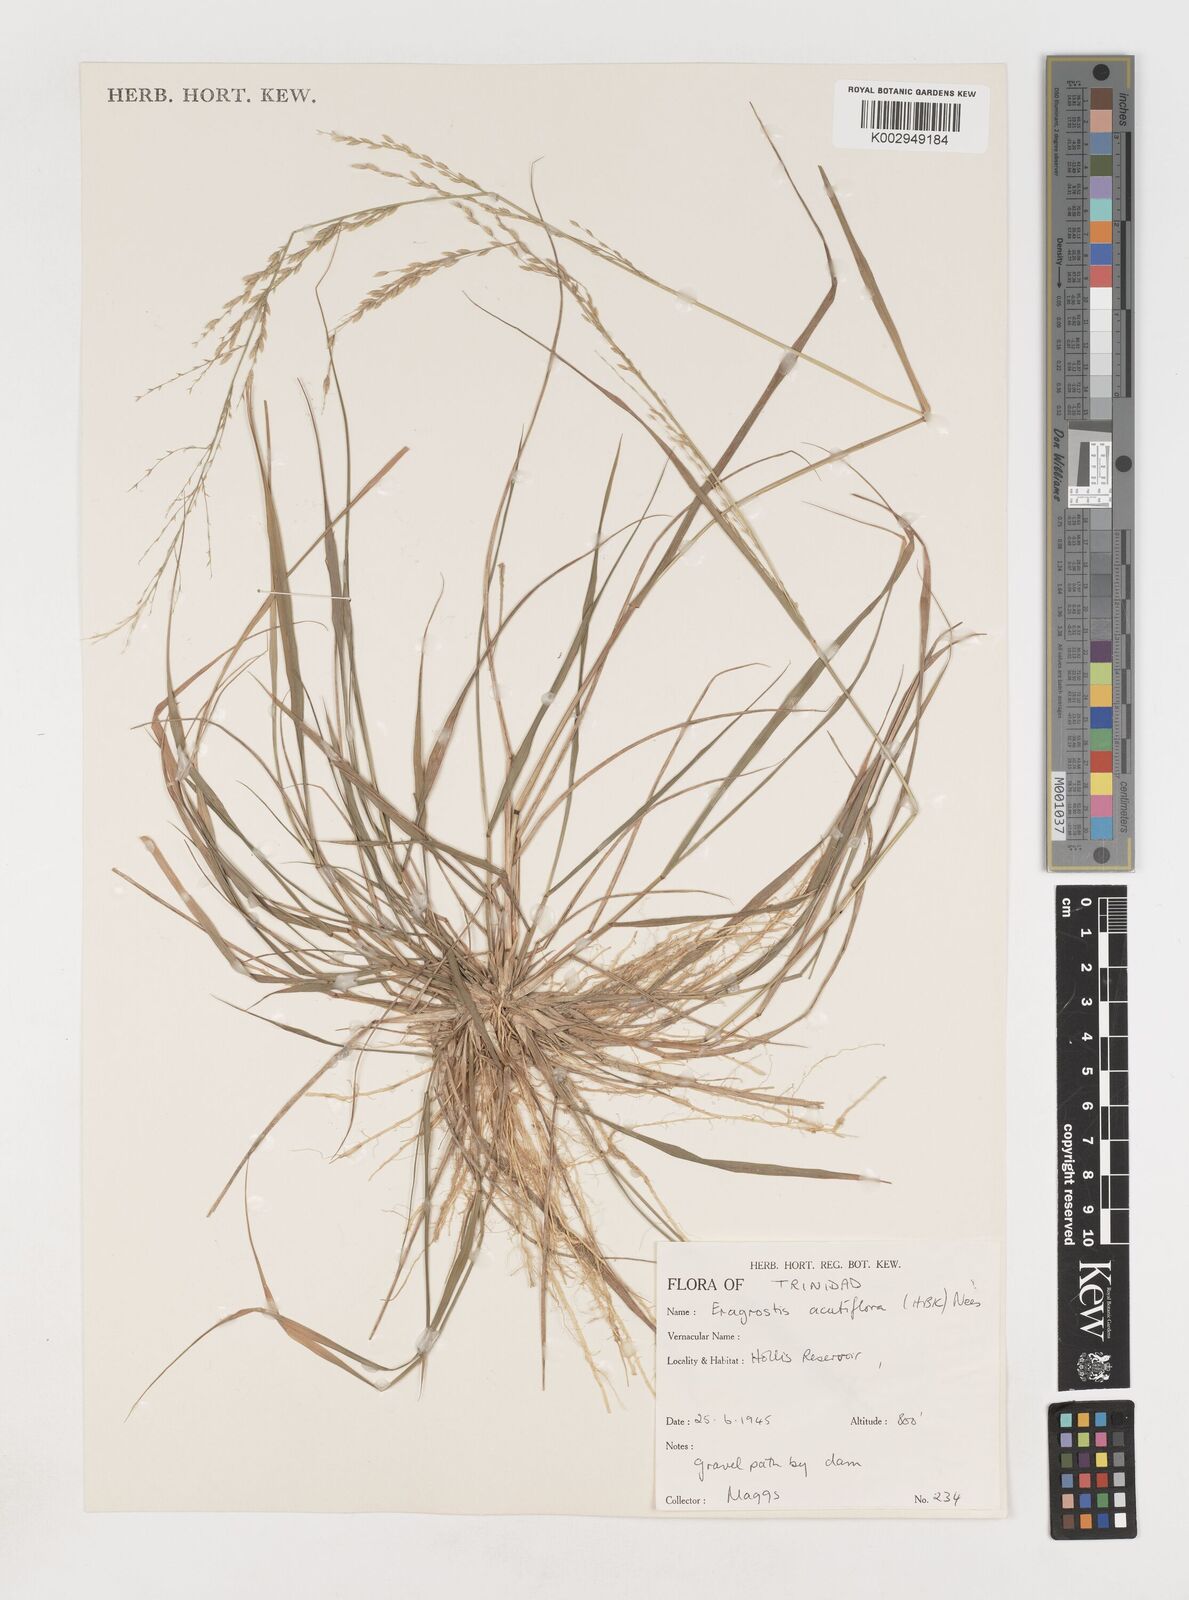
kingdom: Plantae
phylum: Tracheophyta
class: Liliopsida
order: Poales
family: Poaceae
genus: Eragrostis
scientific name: Eragrostis acutiflora
